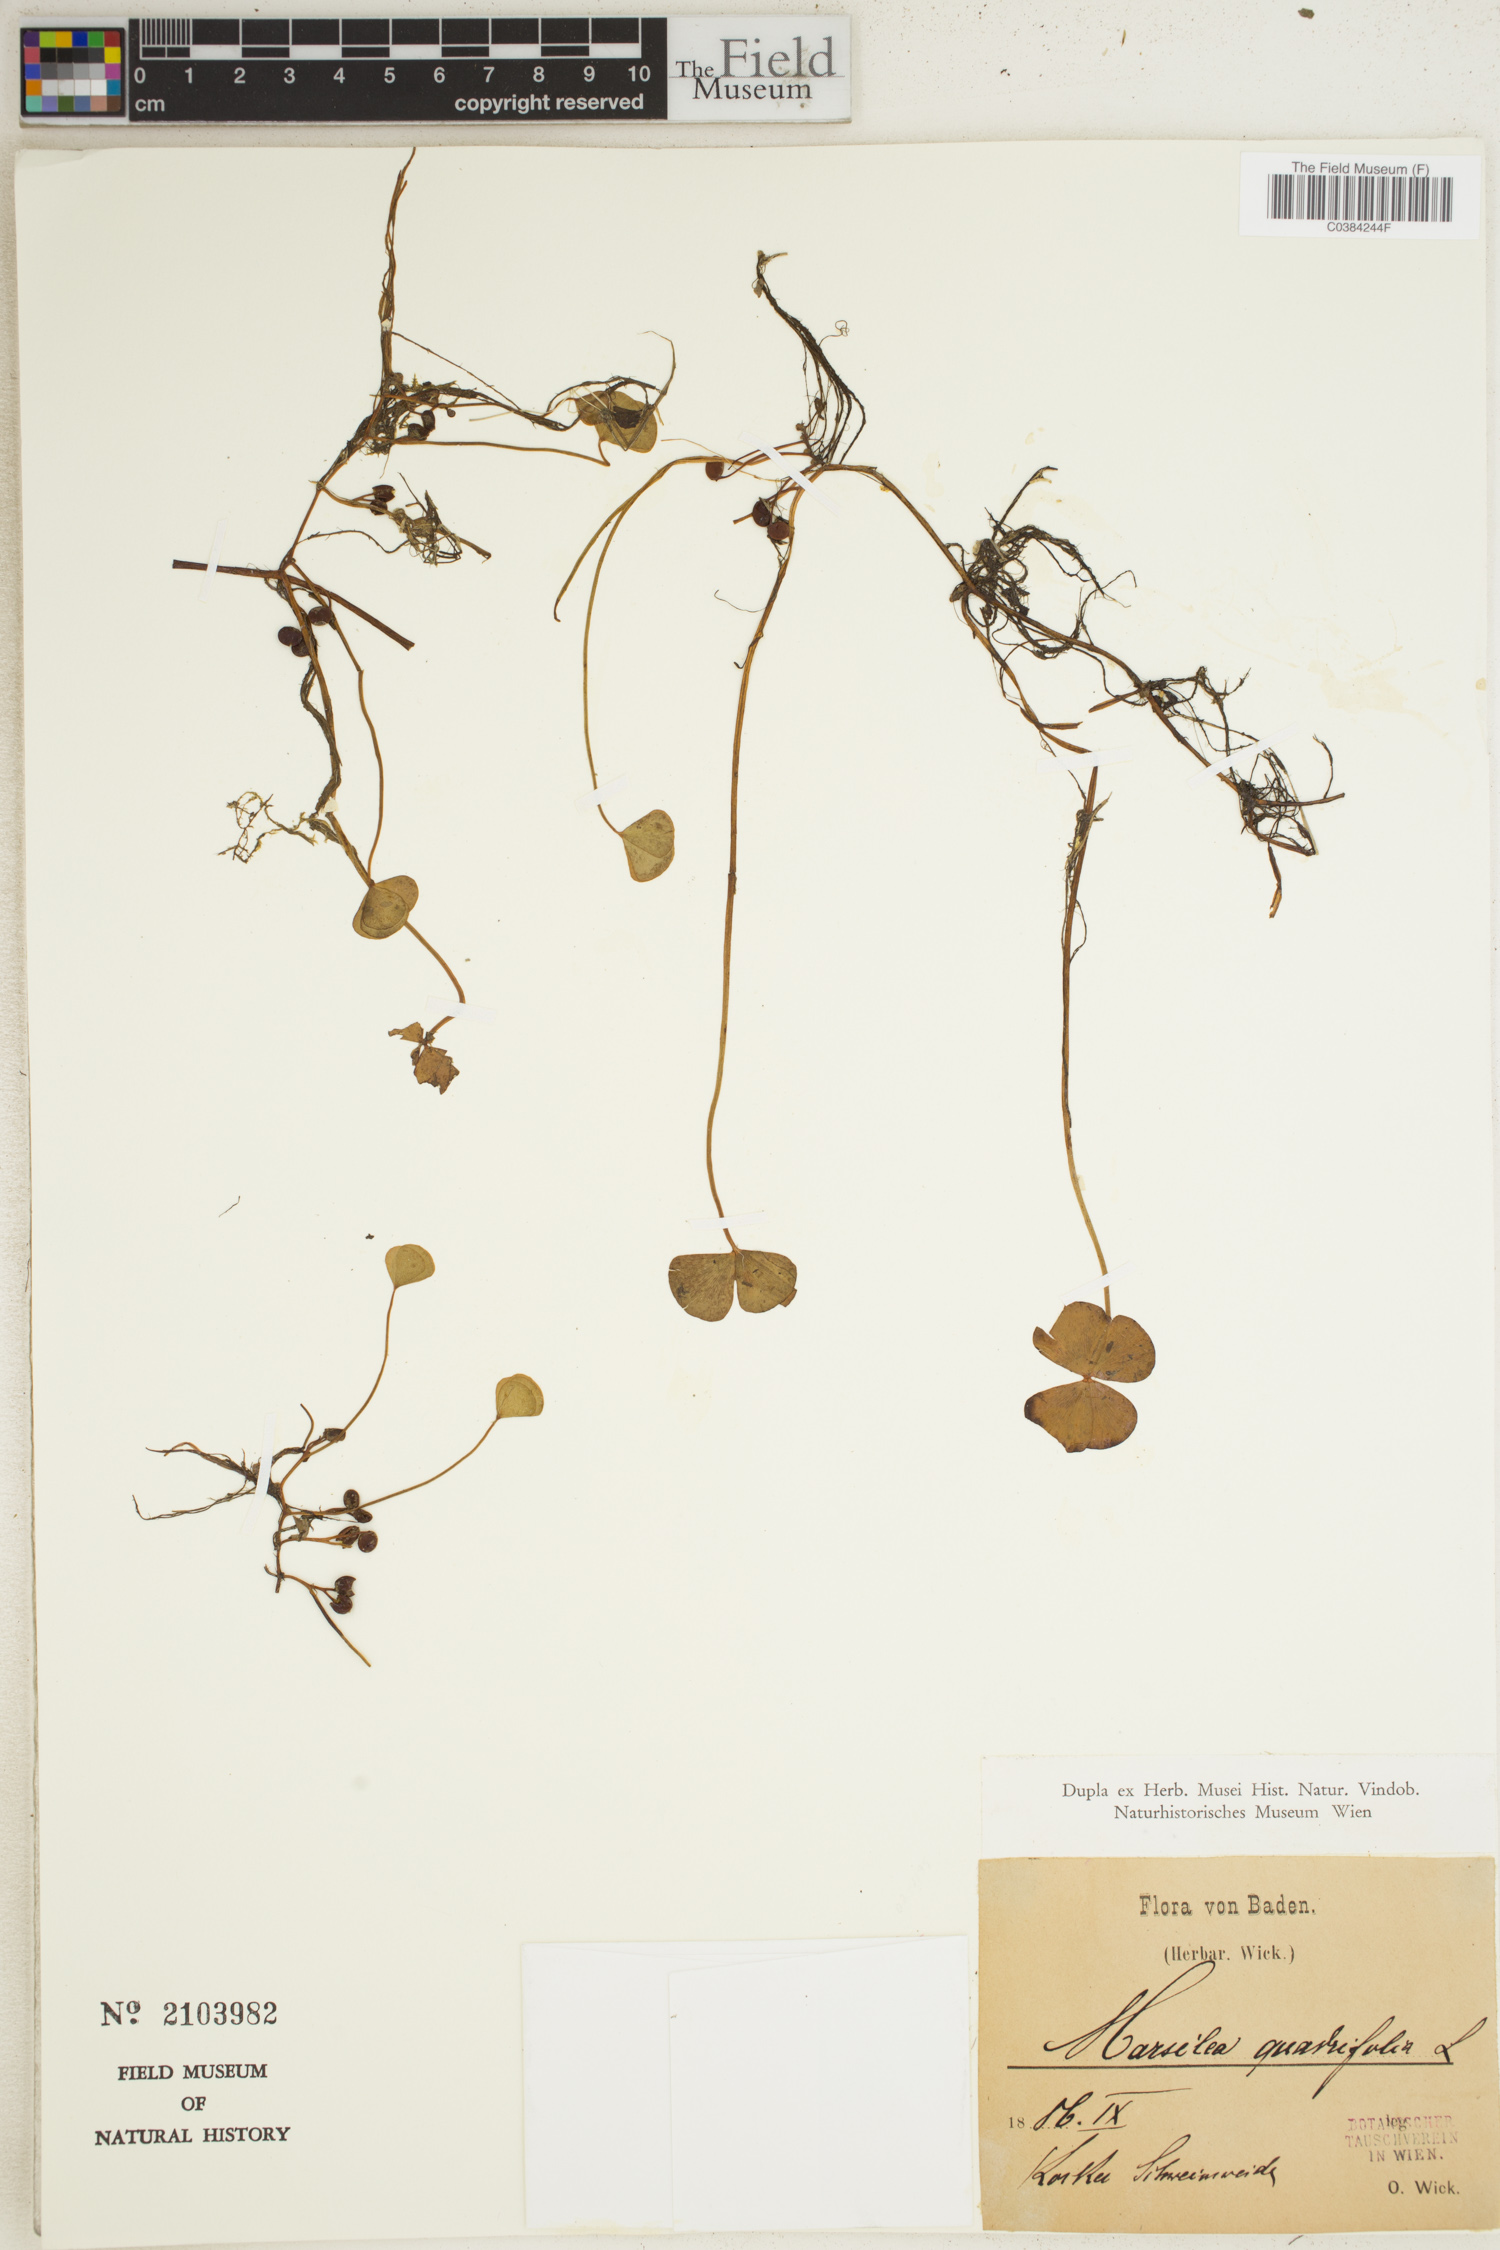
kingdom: Plantae
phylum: Tracheophyta
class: Polypodiopsida
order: Salviniales
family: Marsileaceae
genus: Marsilea
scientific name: Marsilea quadrifolia
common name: Water shamrock
